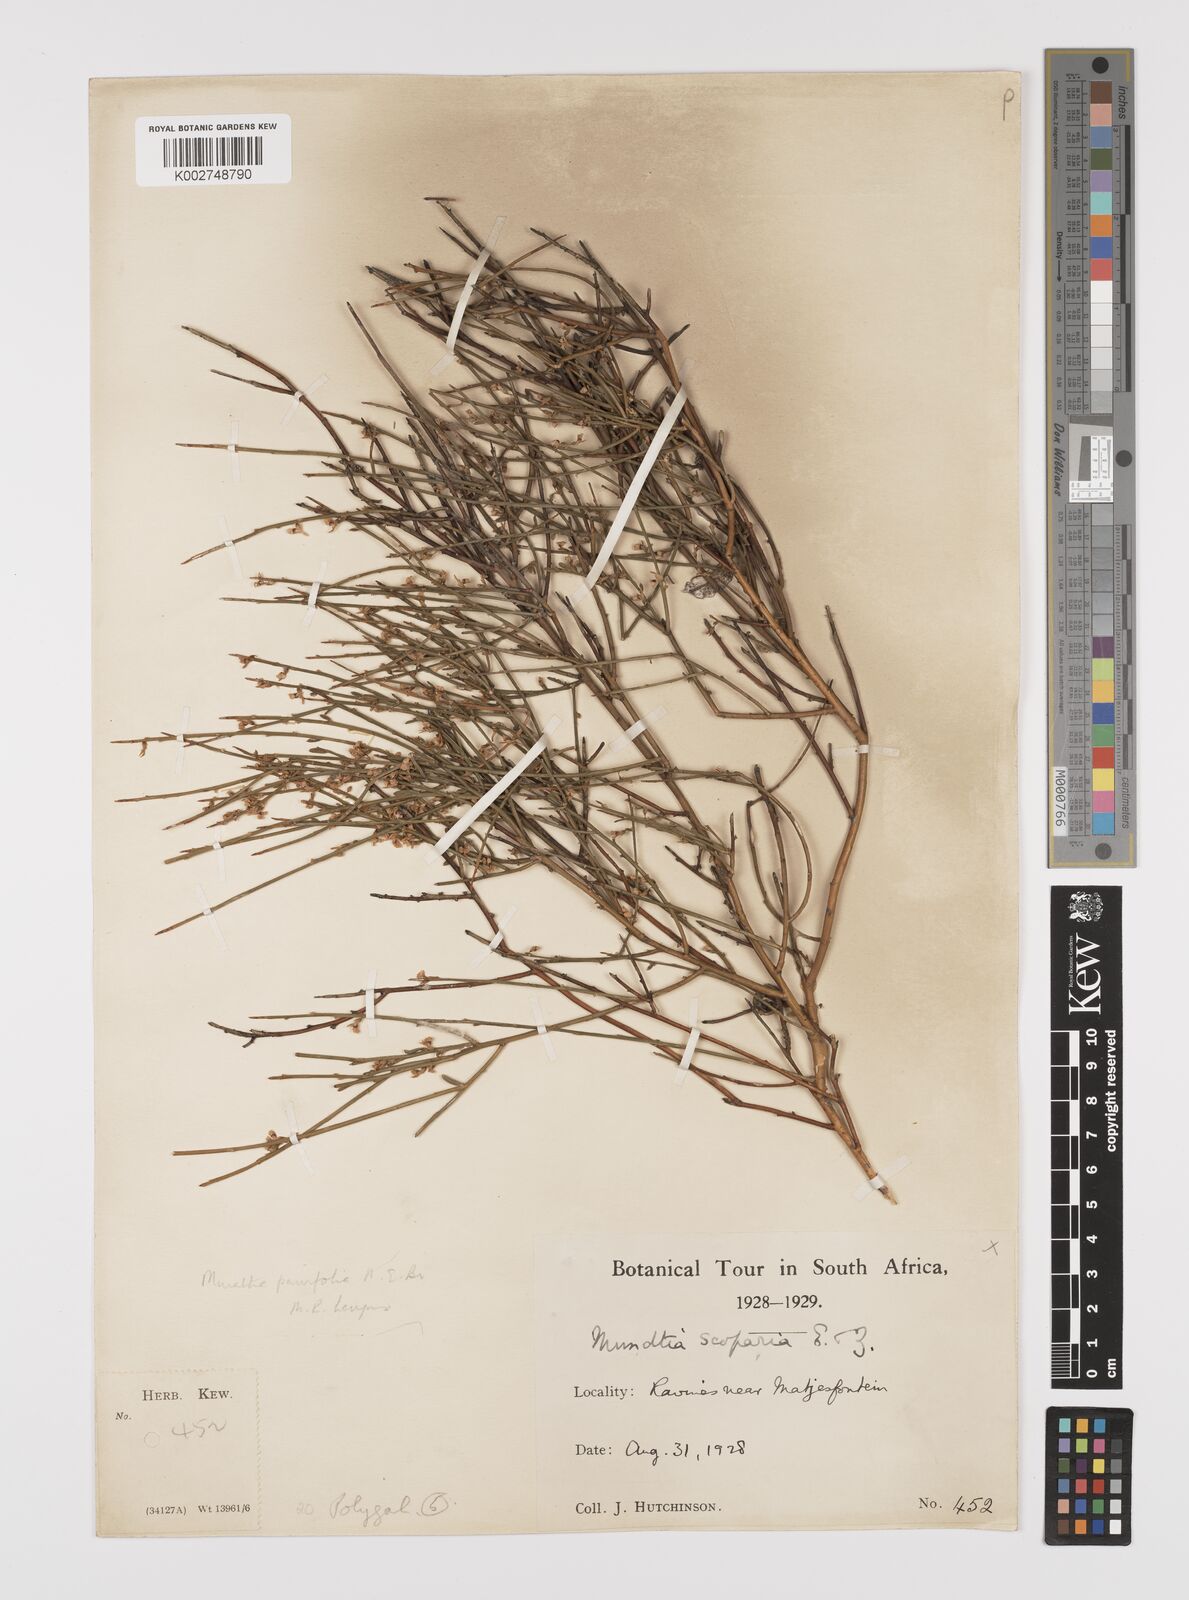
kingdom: Plantae
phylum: Tracheophyta
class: Magnoliopsida
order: Fabales
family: Polygalaceae
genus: Muraltia
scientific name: Muraltia scoparia
